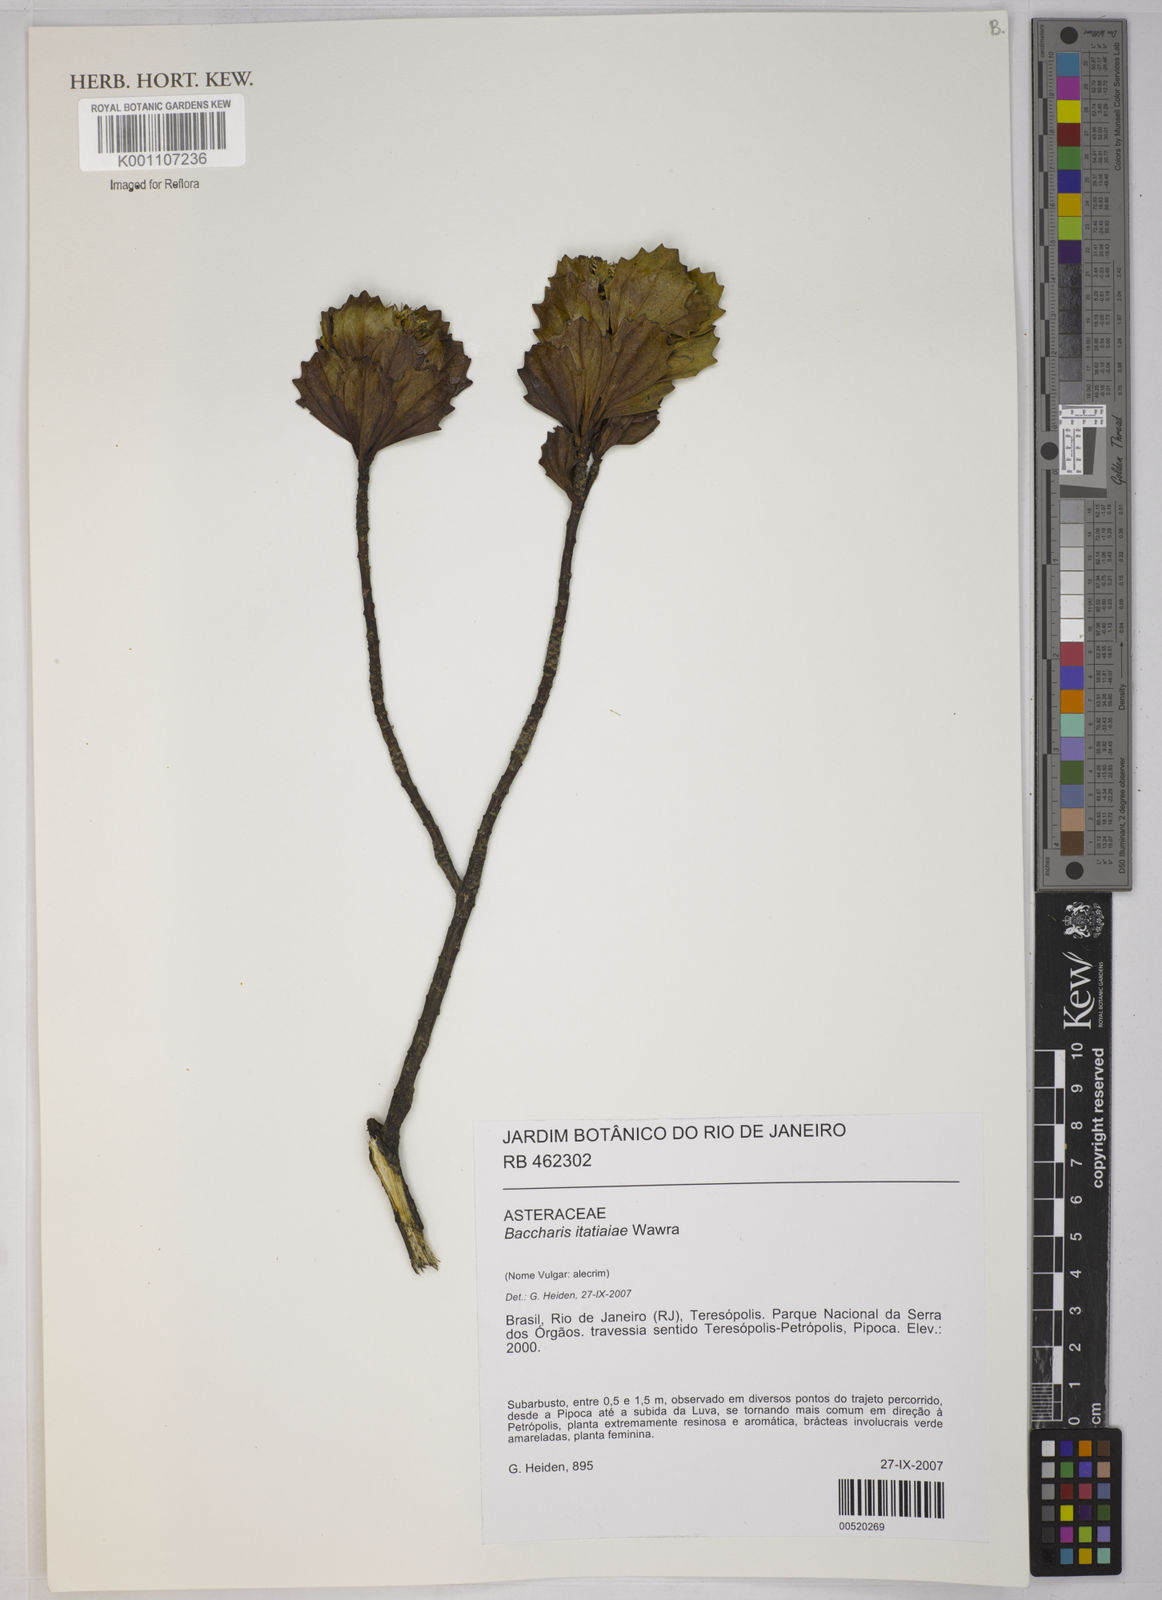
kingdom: Plantae
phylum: Tracheophyta
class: Magnoliopsida
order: Asterales
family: Asteraceae
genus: Baccharis
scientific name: Baccharis itatiaiae
